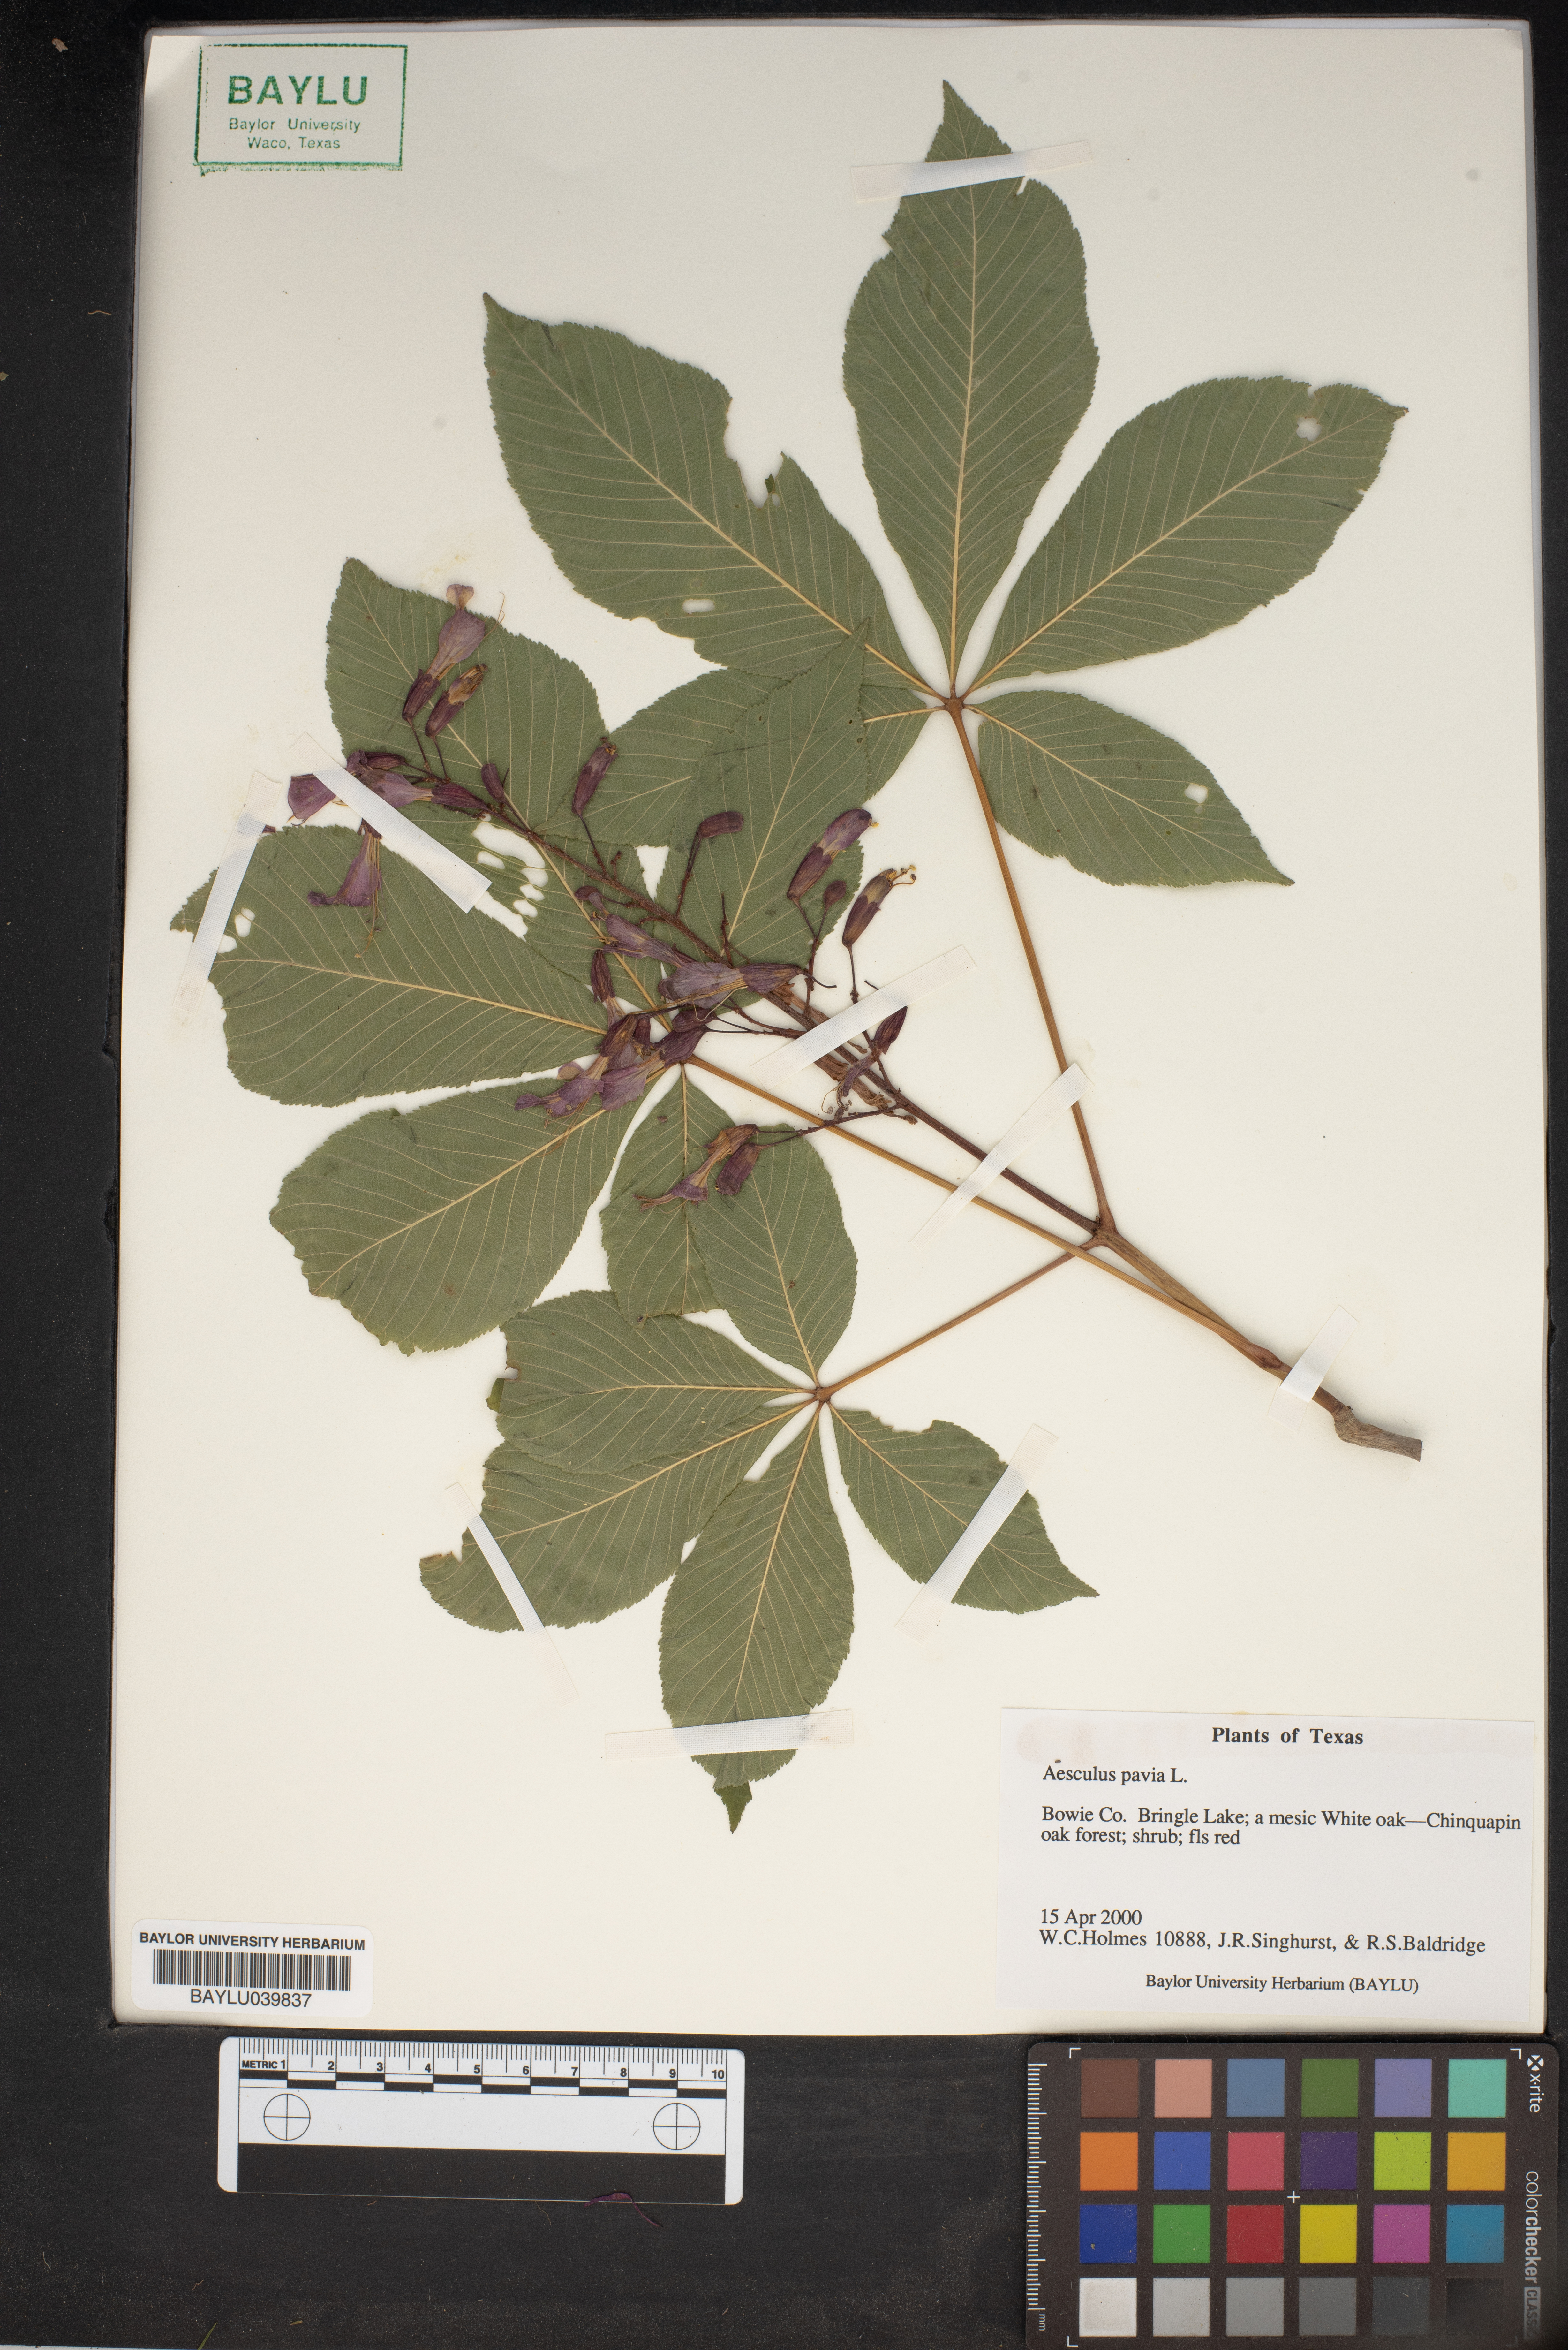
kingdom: Plantae
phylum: Tracheophyta
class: Magnoliopsida
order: Sapindales
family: Sapindaceae
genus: Aesculus
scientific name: Aesculus pavia
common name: Red buckeye
